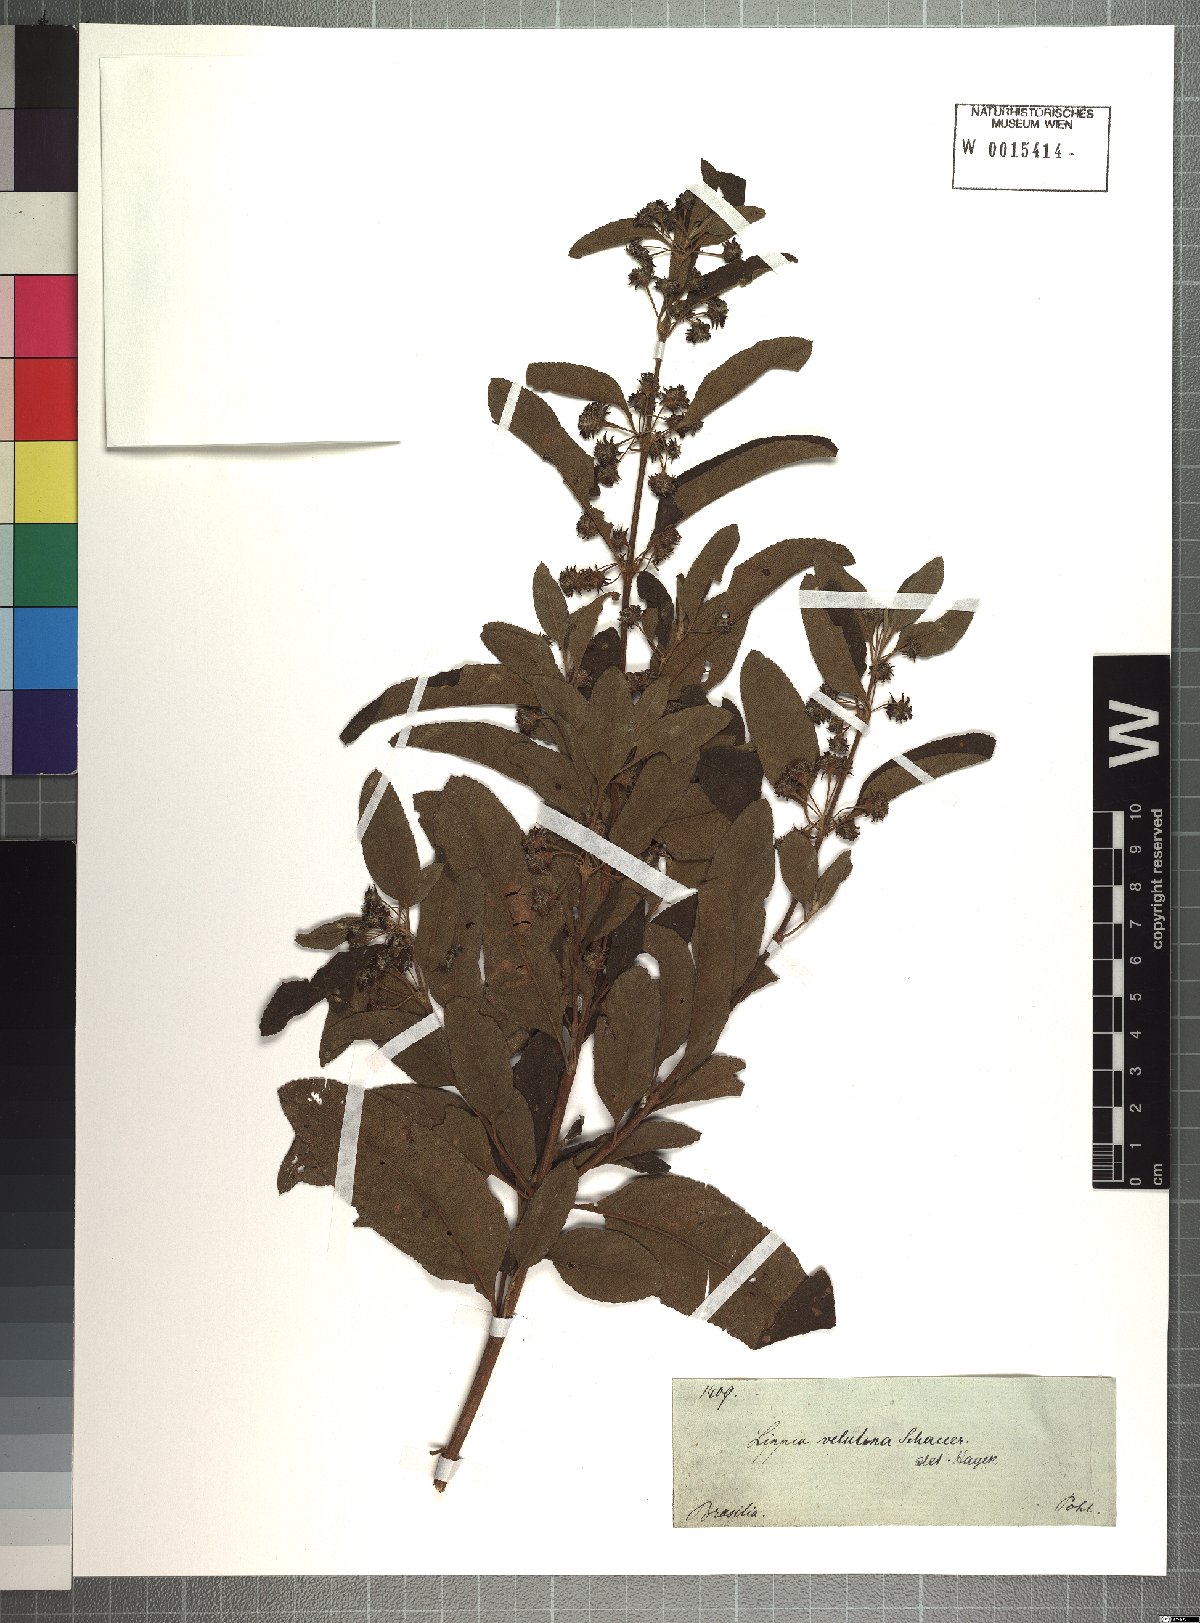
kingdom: Plantae
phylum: Tracheophyta
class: Magnoliopsida
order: Lamiales
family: Verbenaceae
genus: Lippia
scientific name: Lippia origanoides
